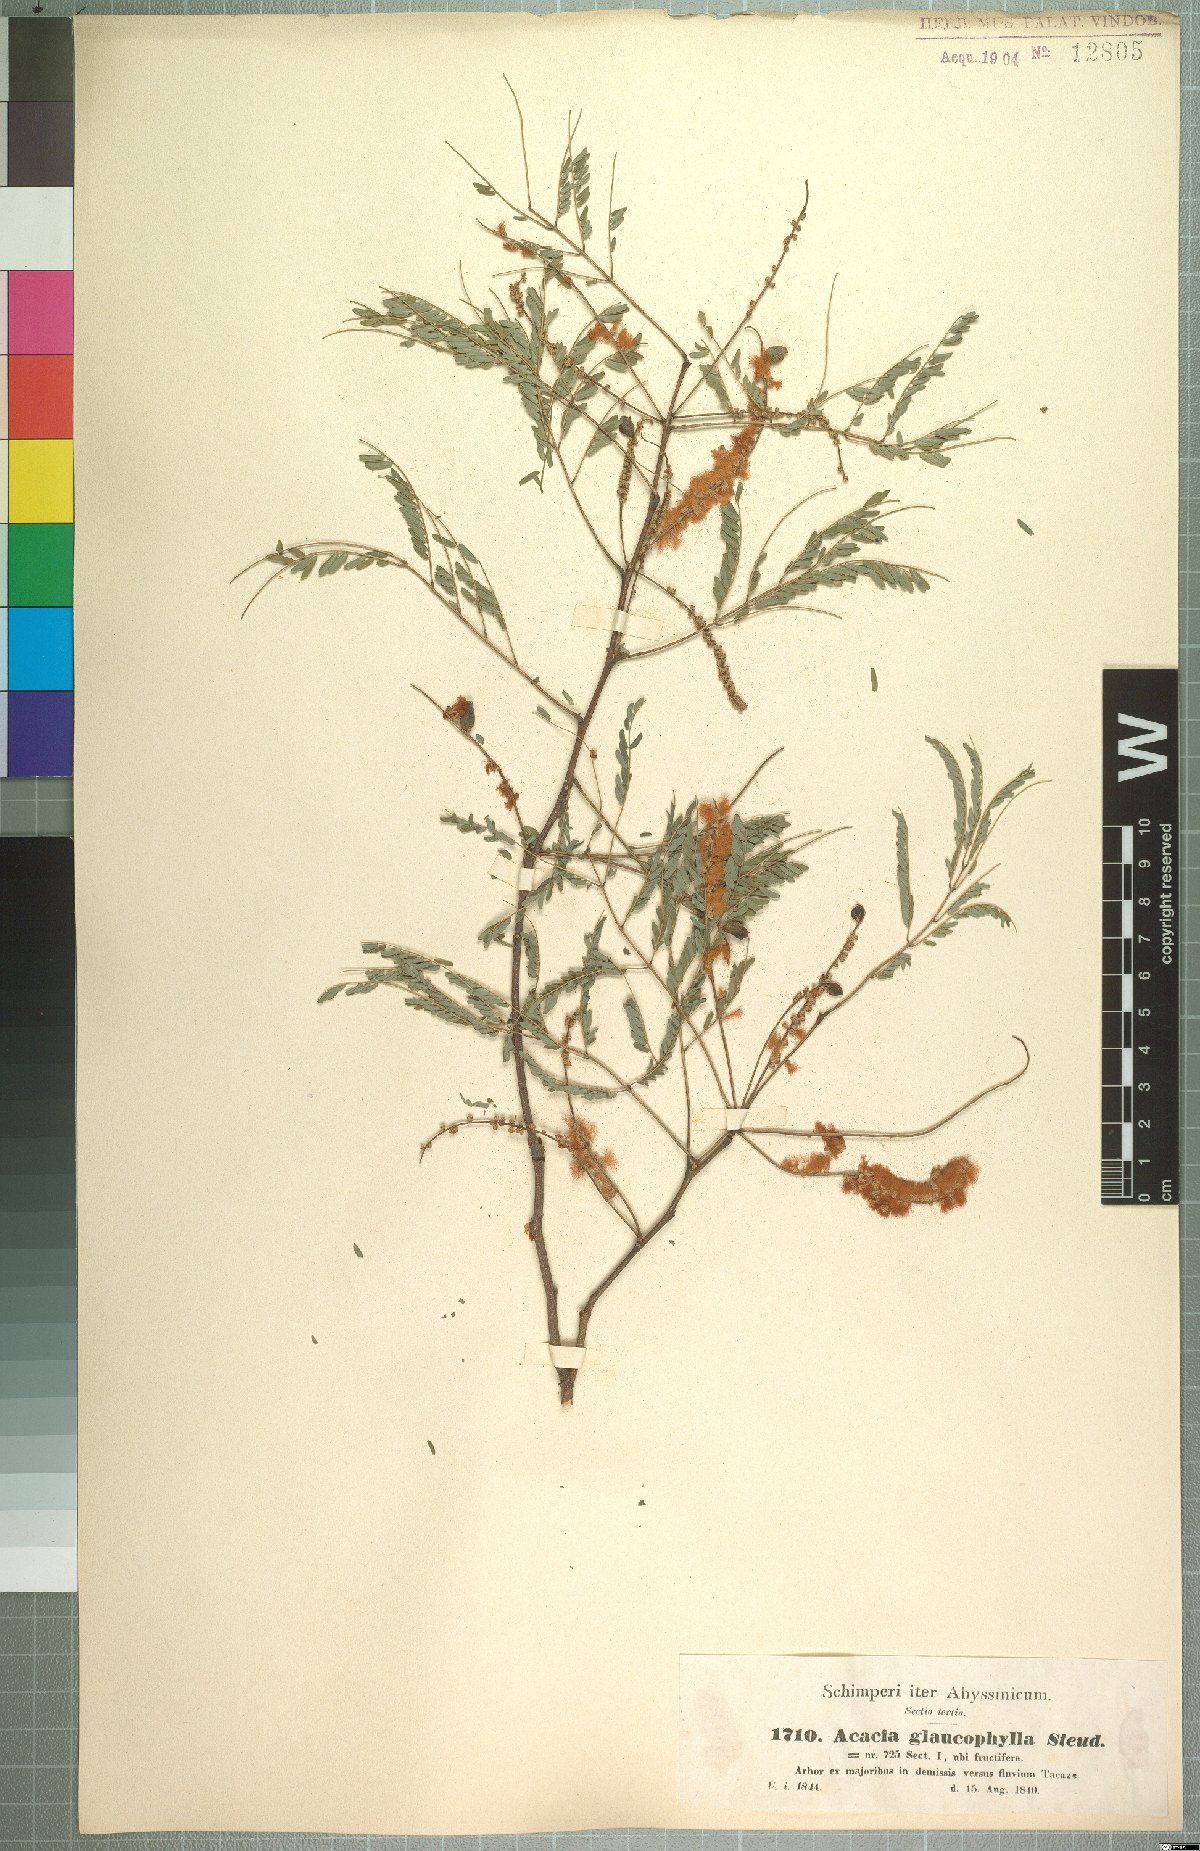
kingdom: Plantae
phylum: Tracheophyta
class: Magnoliopsida
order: Fabales
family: Fabaceae
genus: Senegalia
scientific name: Senegalia asak
